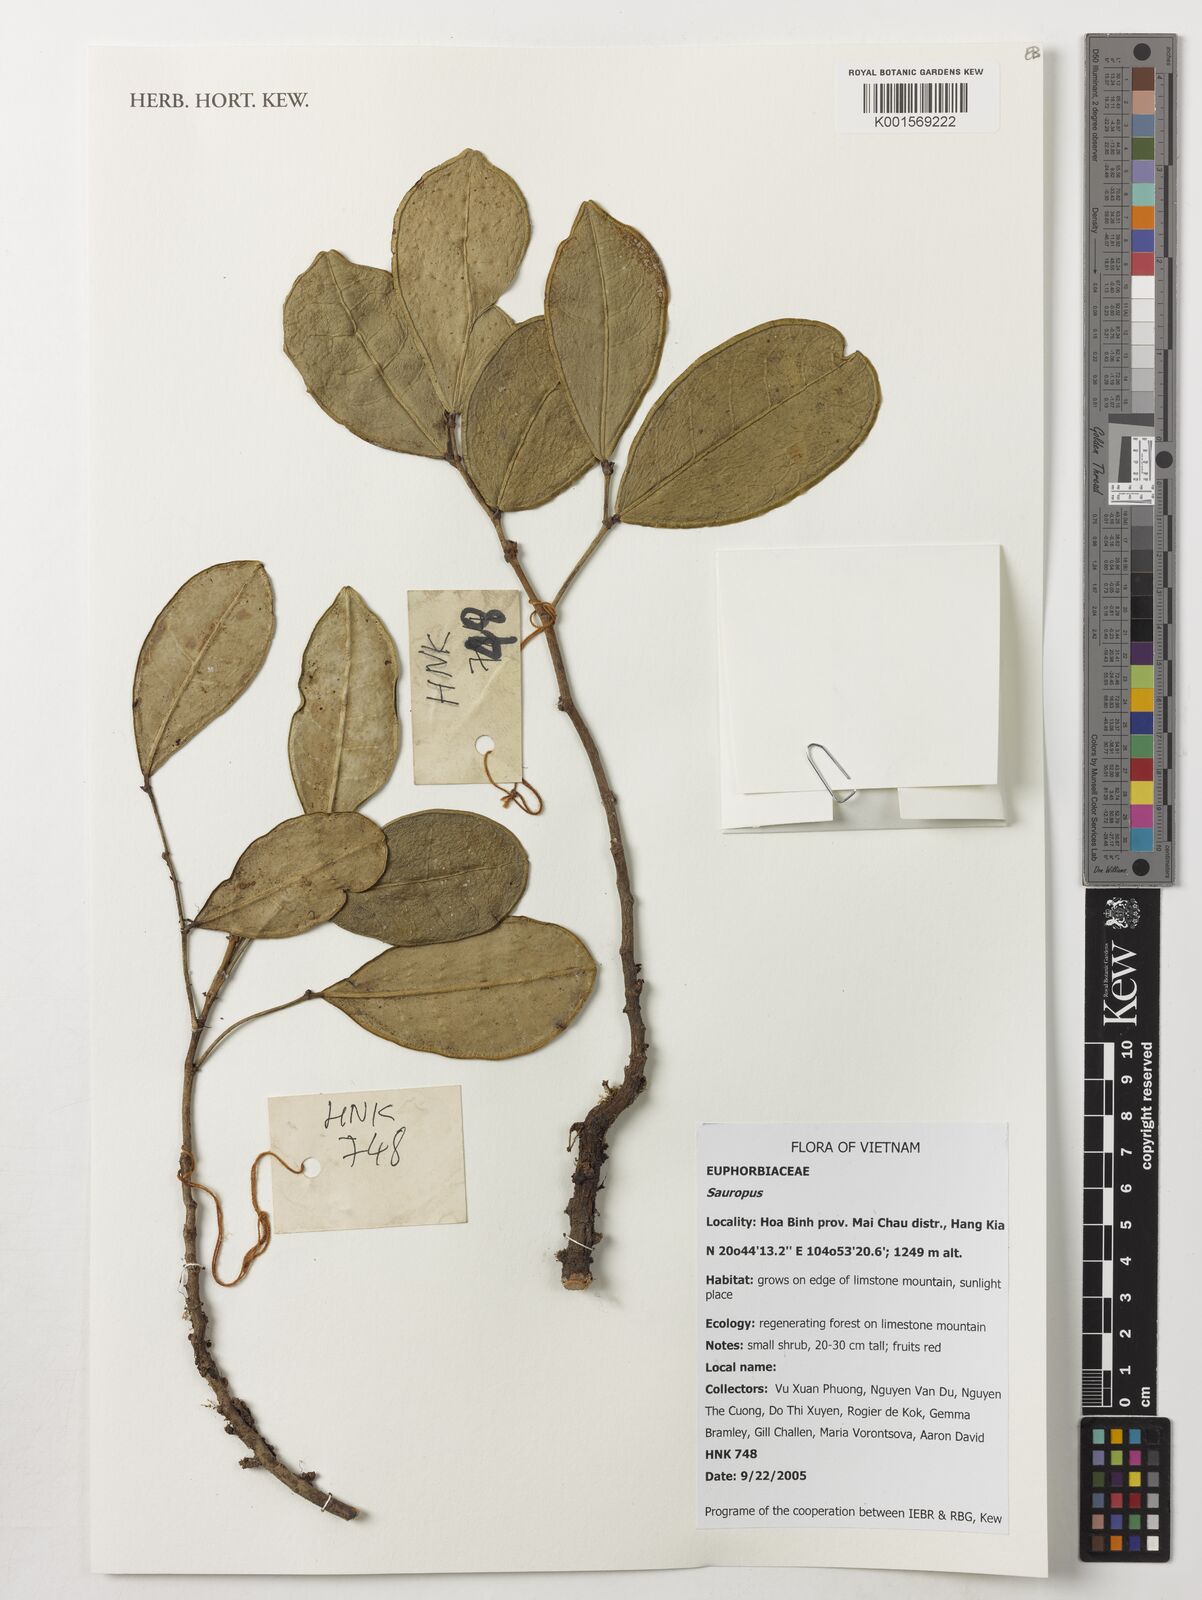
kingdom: Animalia
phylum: Chordata
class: Amphibia
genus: Sauropus
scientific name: Sauropus
